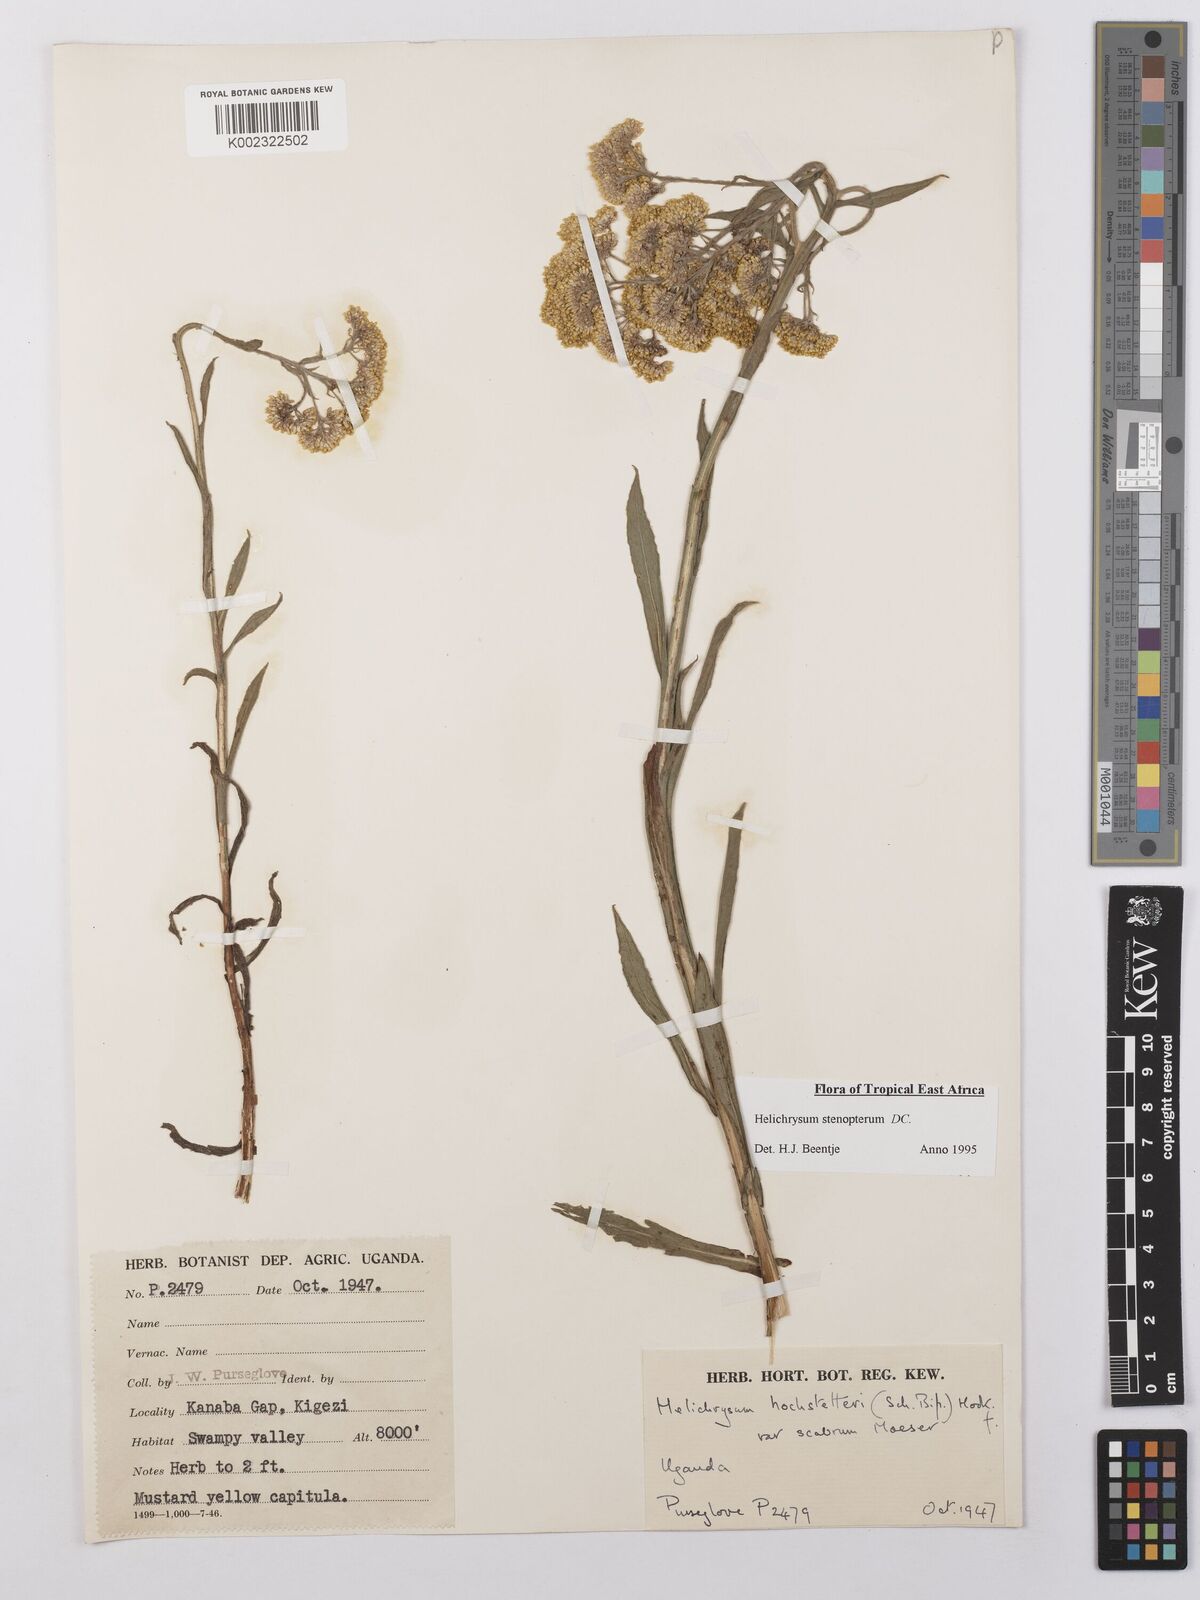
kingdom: Plantae
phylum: Tracheophyta
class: Magnoliopsida
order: Asterales
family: Asteraceae
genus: Helichrysum
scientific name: Helichrysum stenopterum
